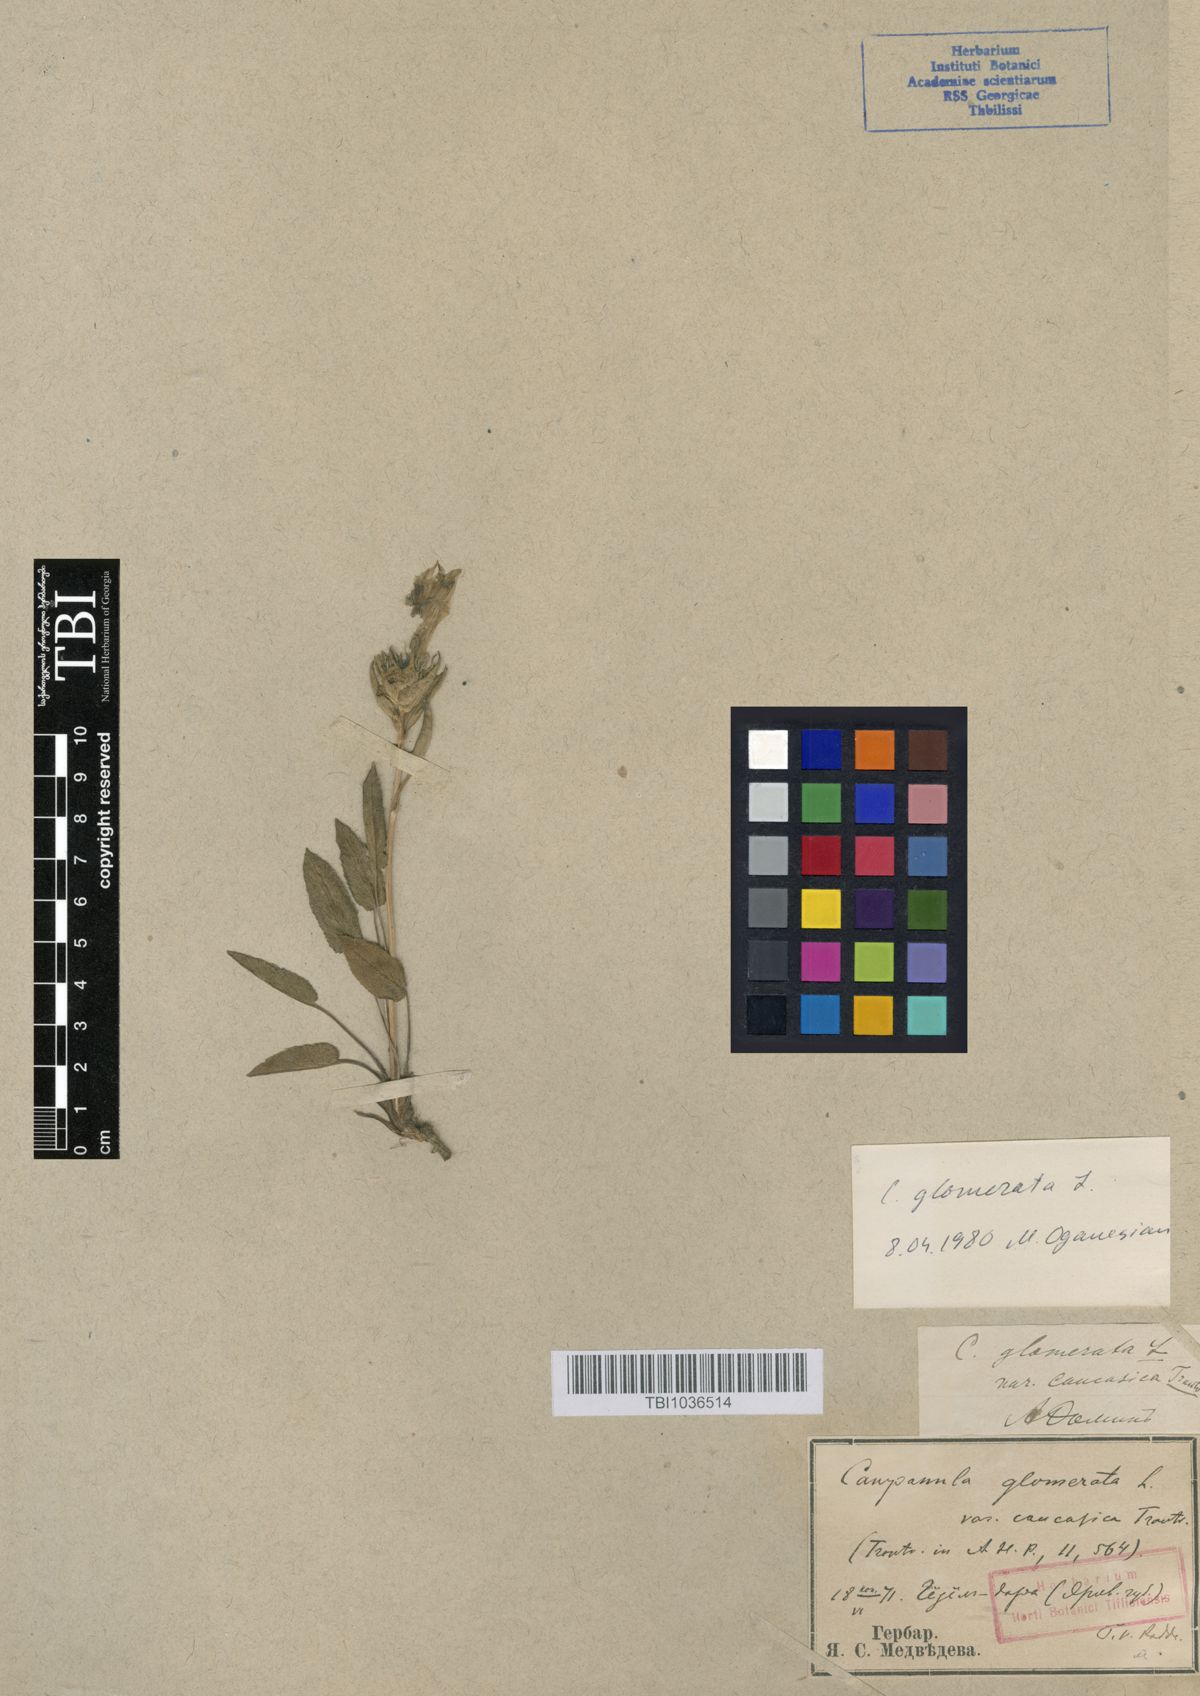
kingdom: Plantae
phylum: Tracheophyta
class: Magnoliopsida
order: Asterales
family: Campanulaceae
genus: Campanula
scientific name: Campanula glomerata
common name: Clustered bellflower
